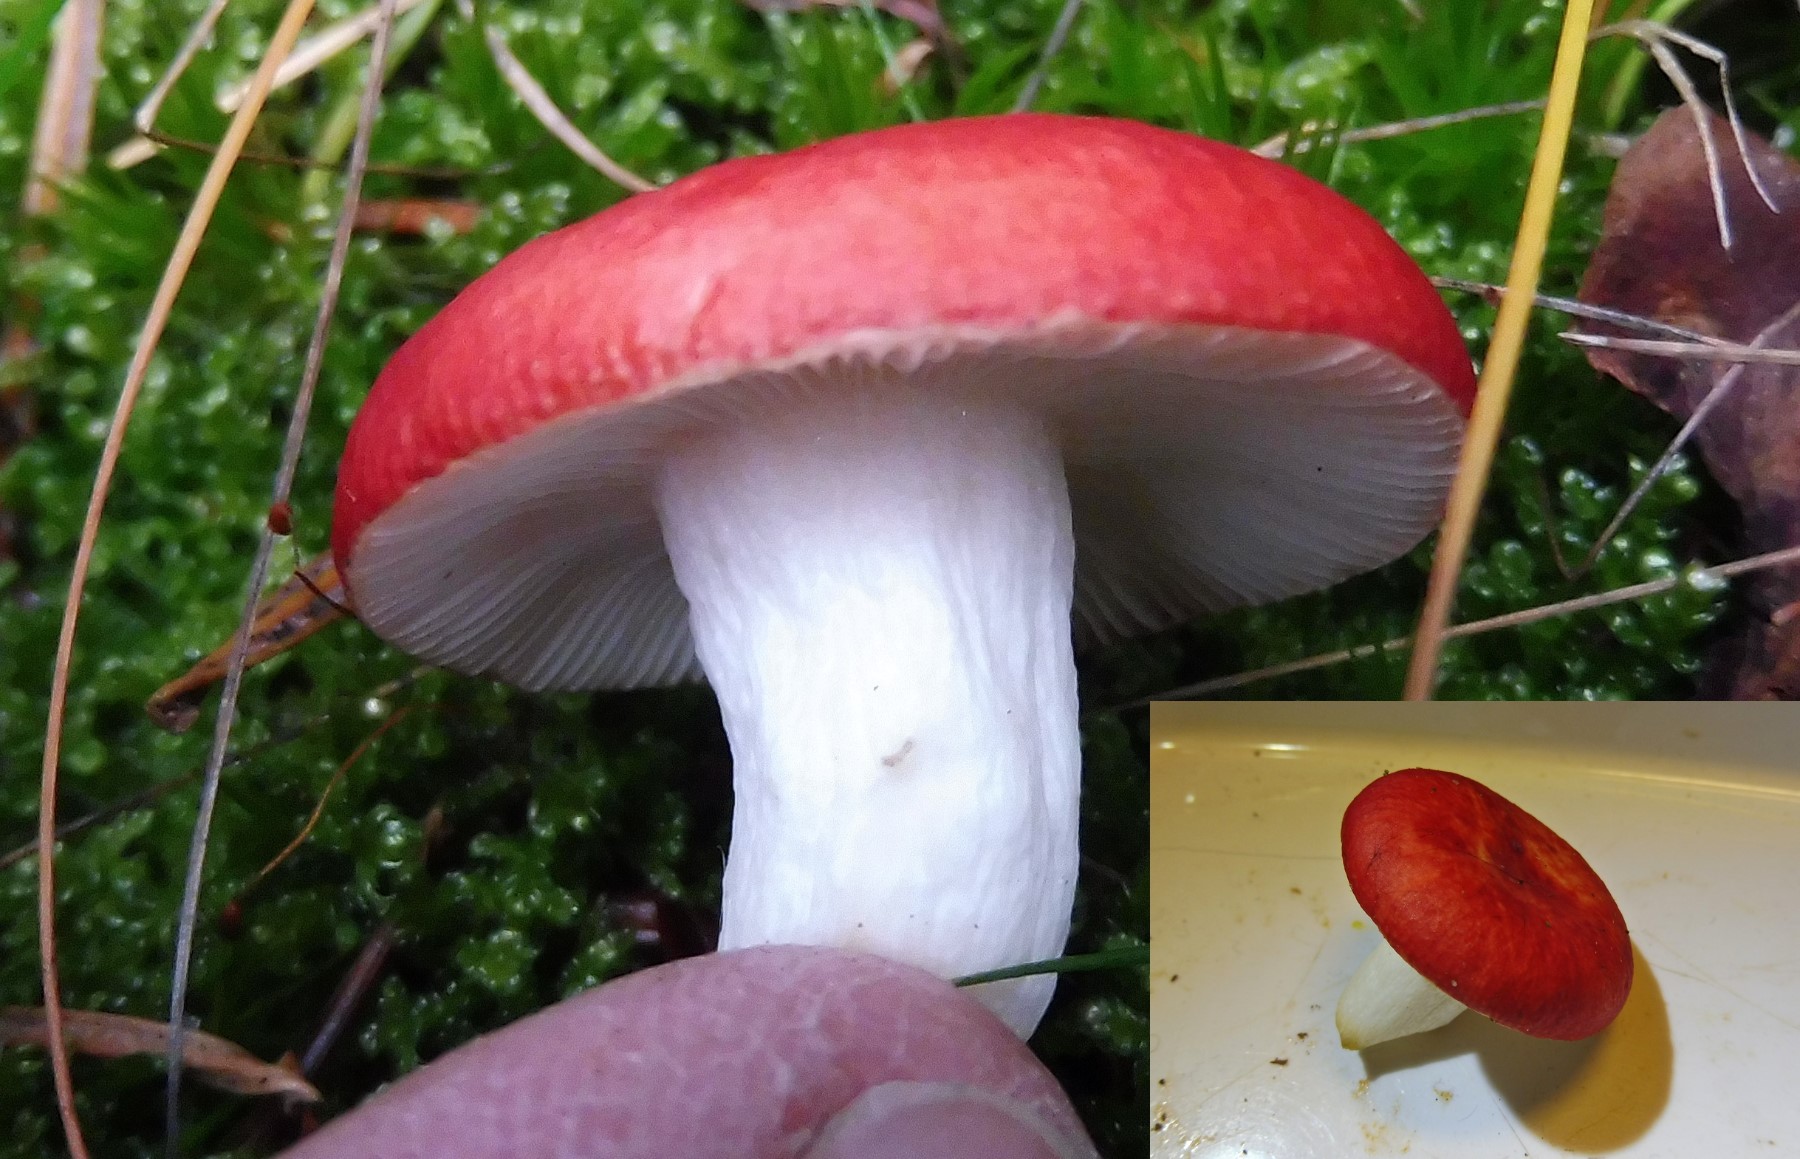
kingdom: Fungi
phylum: Basidiomycota
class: Agaricomycetes
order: Russulales
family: Russulaceae
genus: Russula
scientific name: Russula emetica
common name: stor gift-skørhat
